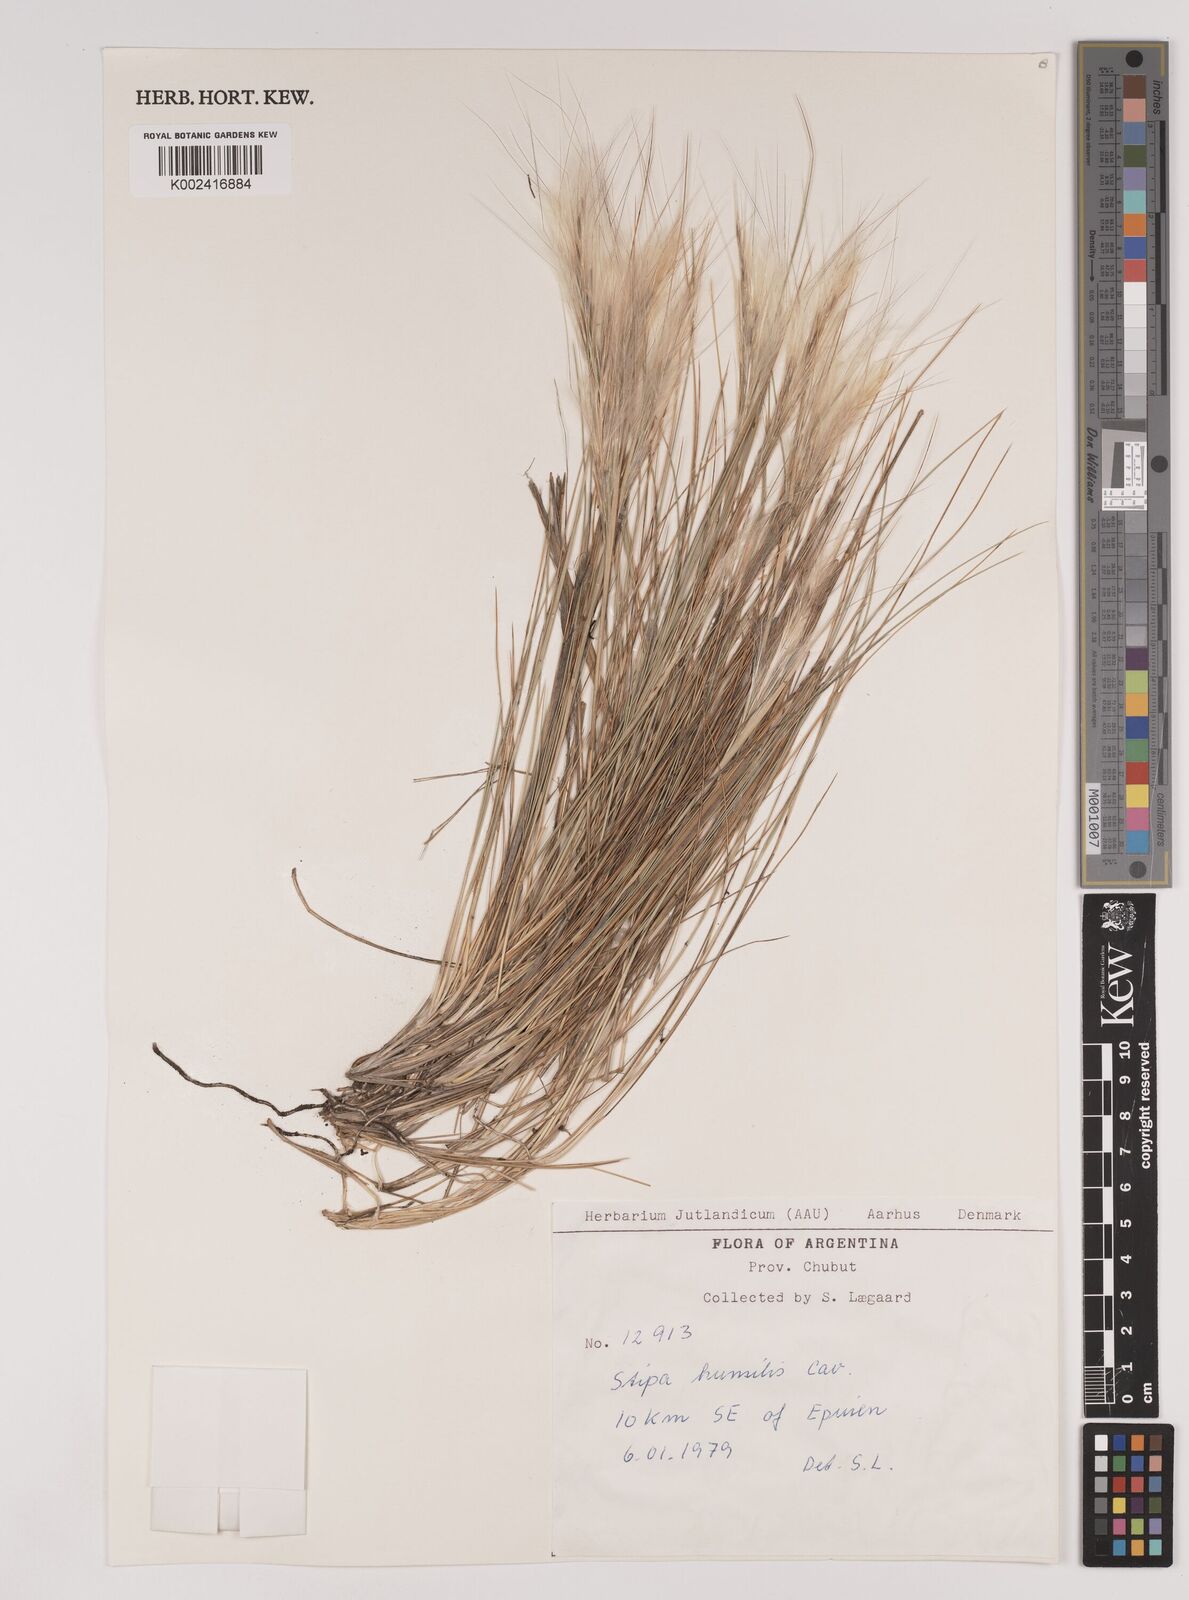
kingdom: Plantae
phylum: Tracheophyta
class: Liliopsida
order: Poales
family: Poaceae
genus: Pappostipa
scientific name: Pappostipa humilis
